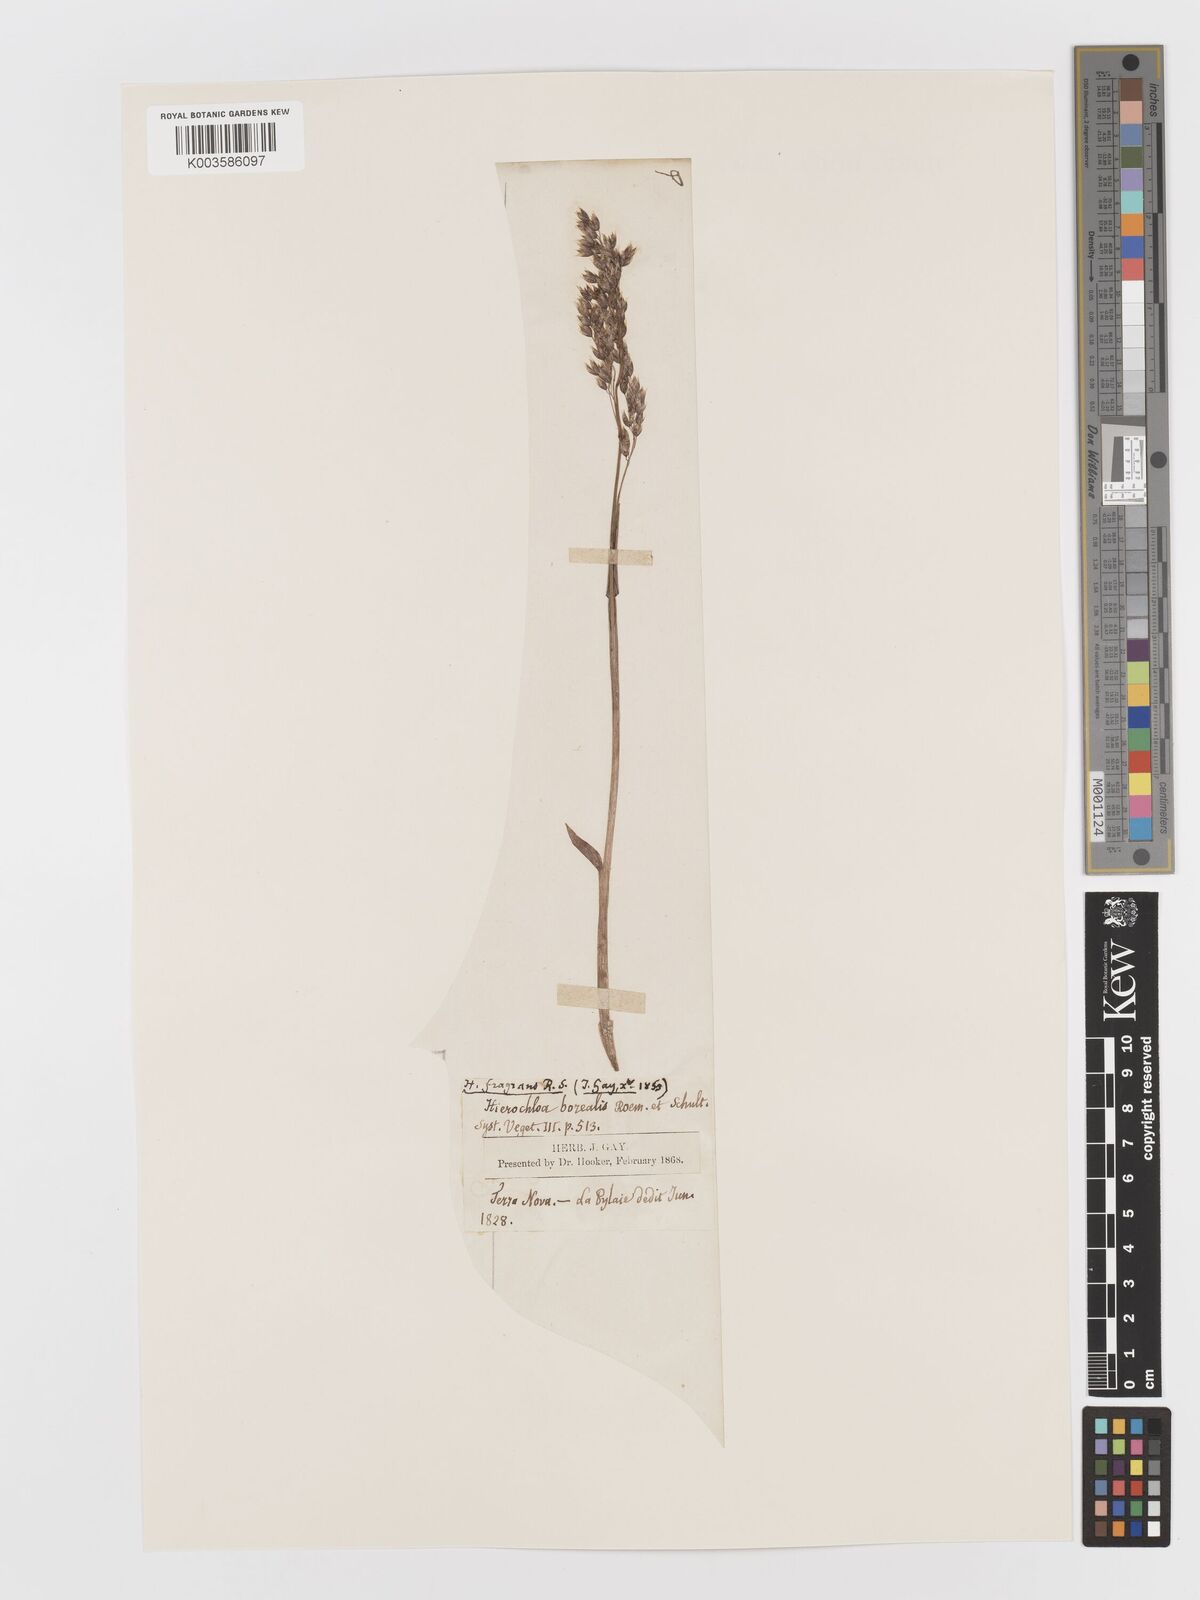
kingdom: Plantae
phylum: Tracheophyta
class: Liliopsida
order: Poales
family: Poaceae
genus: Anthoxanthum
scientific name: Anthoxanthum nitens
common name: Holy grass
